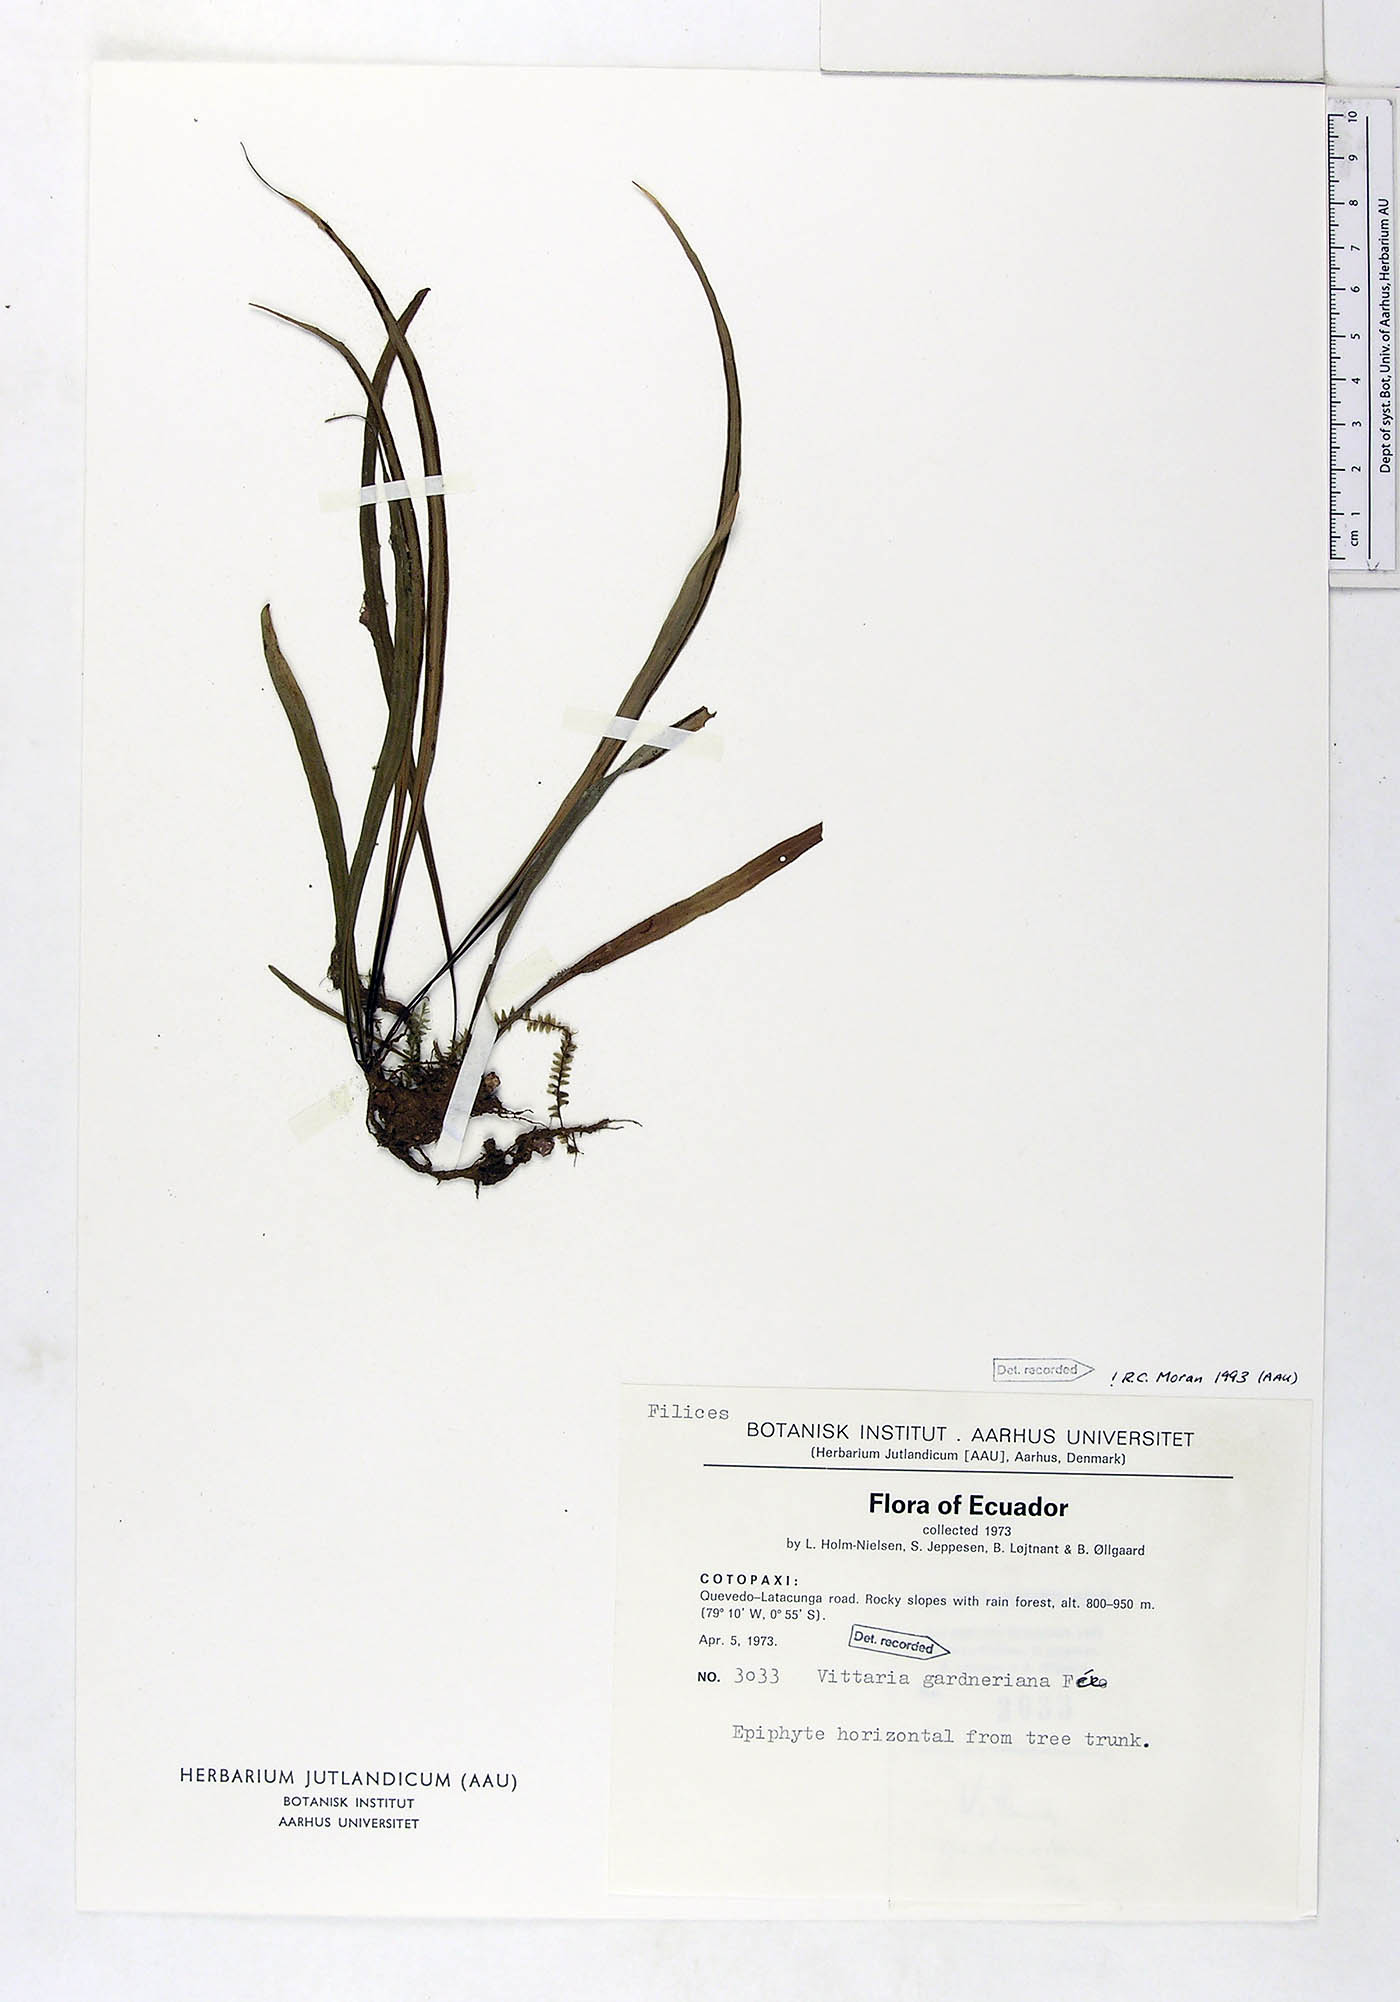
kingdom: Plantae
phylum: Tracheophyta
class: Polypodiopsida
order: Polypodiales
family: Pteridaceae
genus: Radiovittaria
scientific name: Radiovittaria gardneriana
